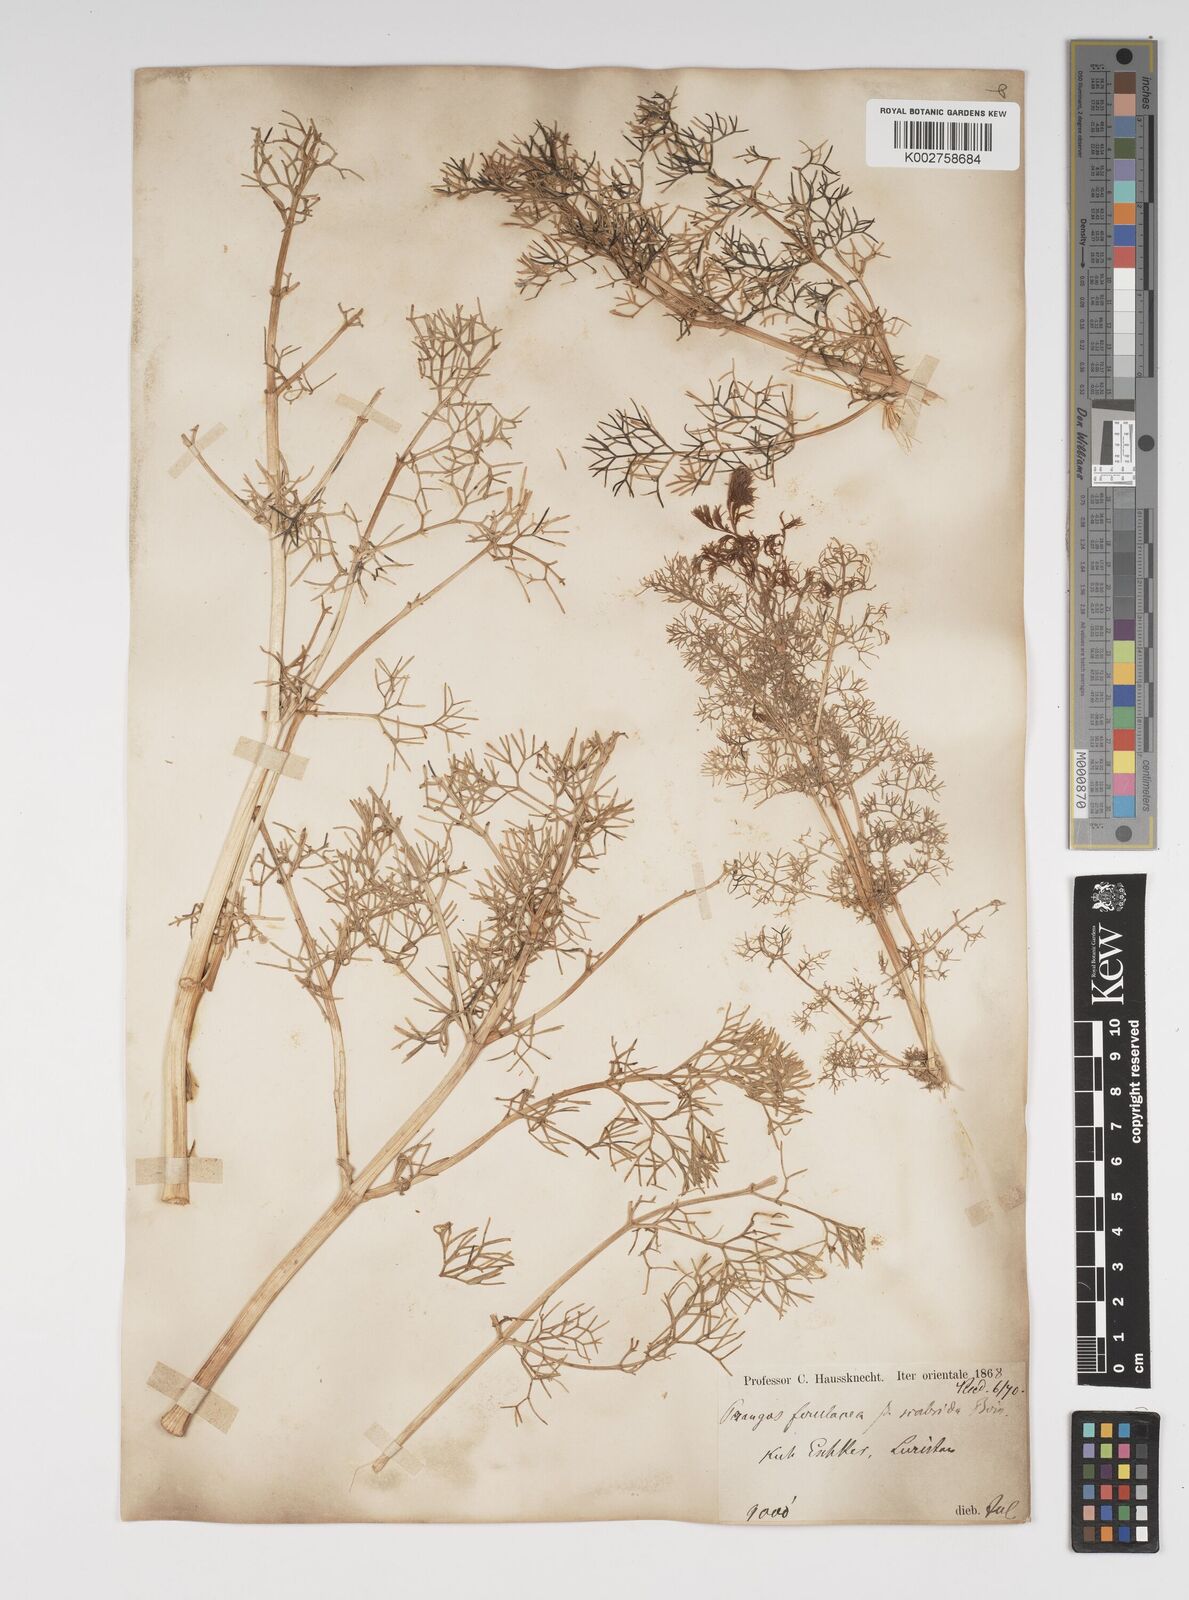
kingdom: Plantae
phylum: Tracheophyta
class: Magnoliopsida
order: Apiales
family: Apiaceae
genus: Prangos
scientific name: Prangos ferulacea
